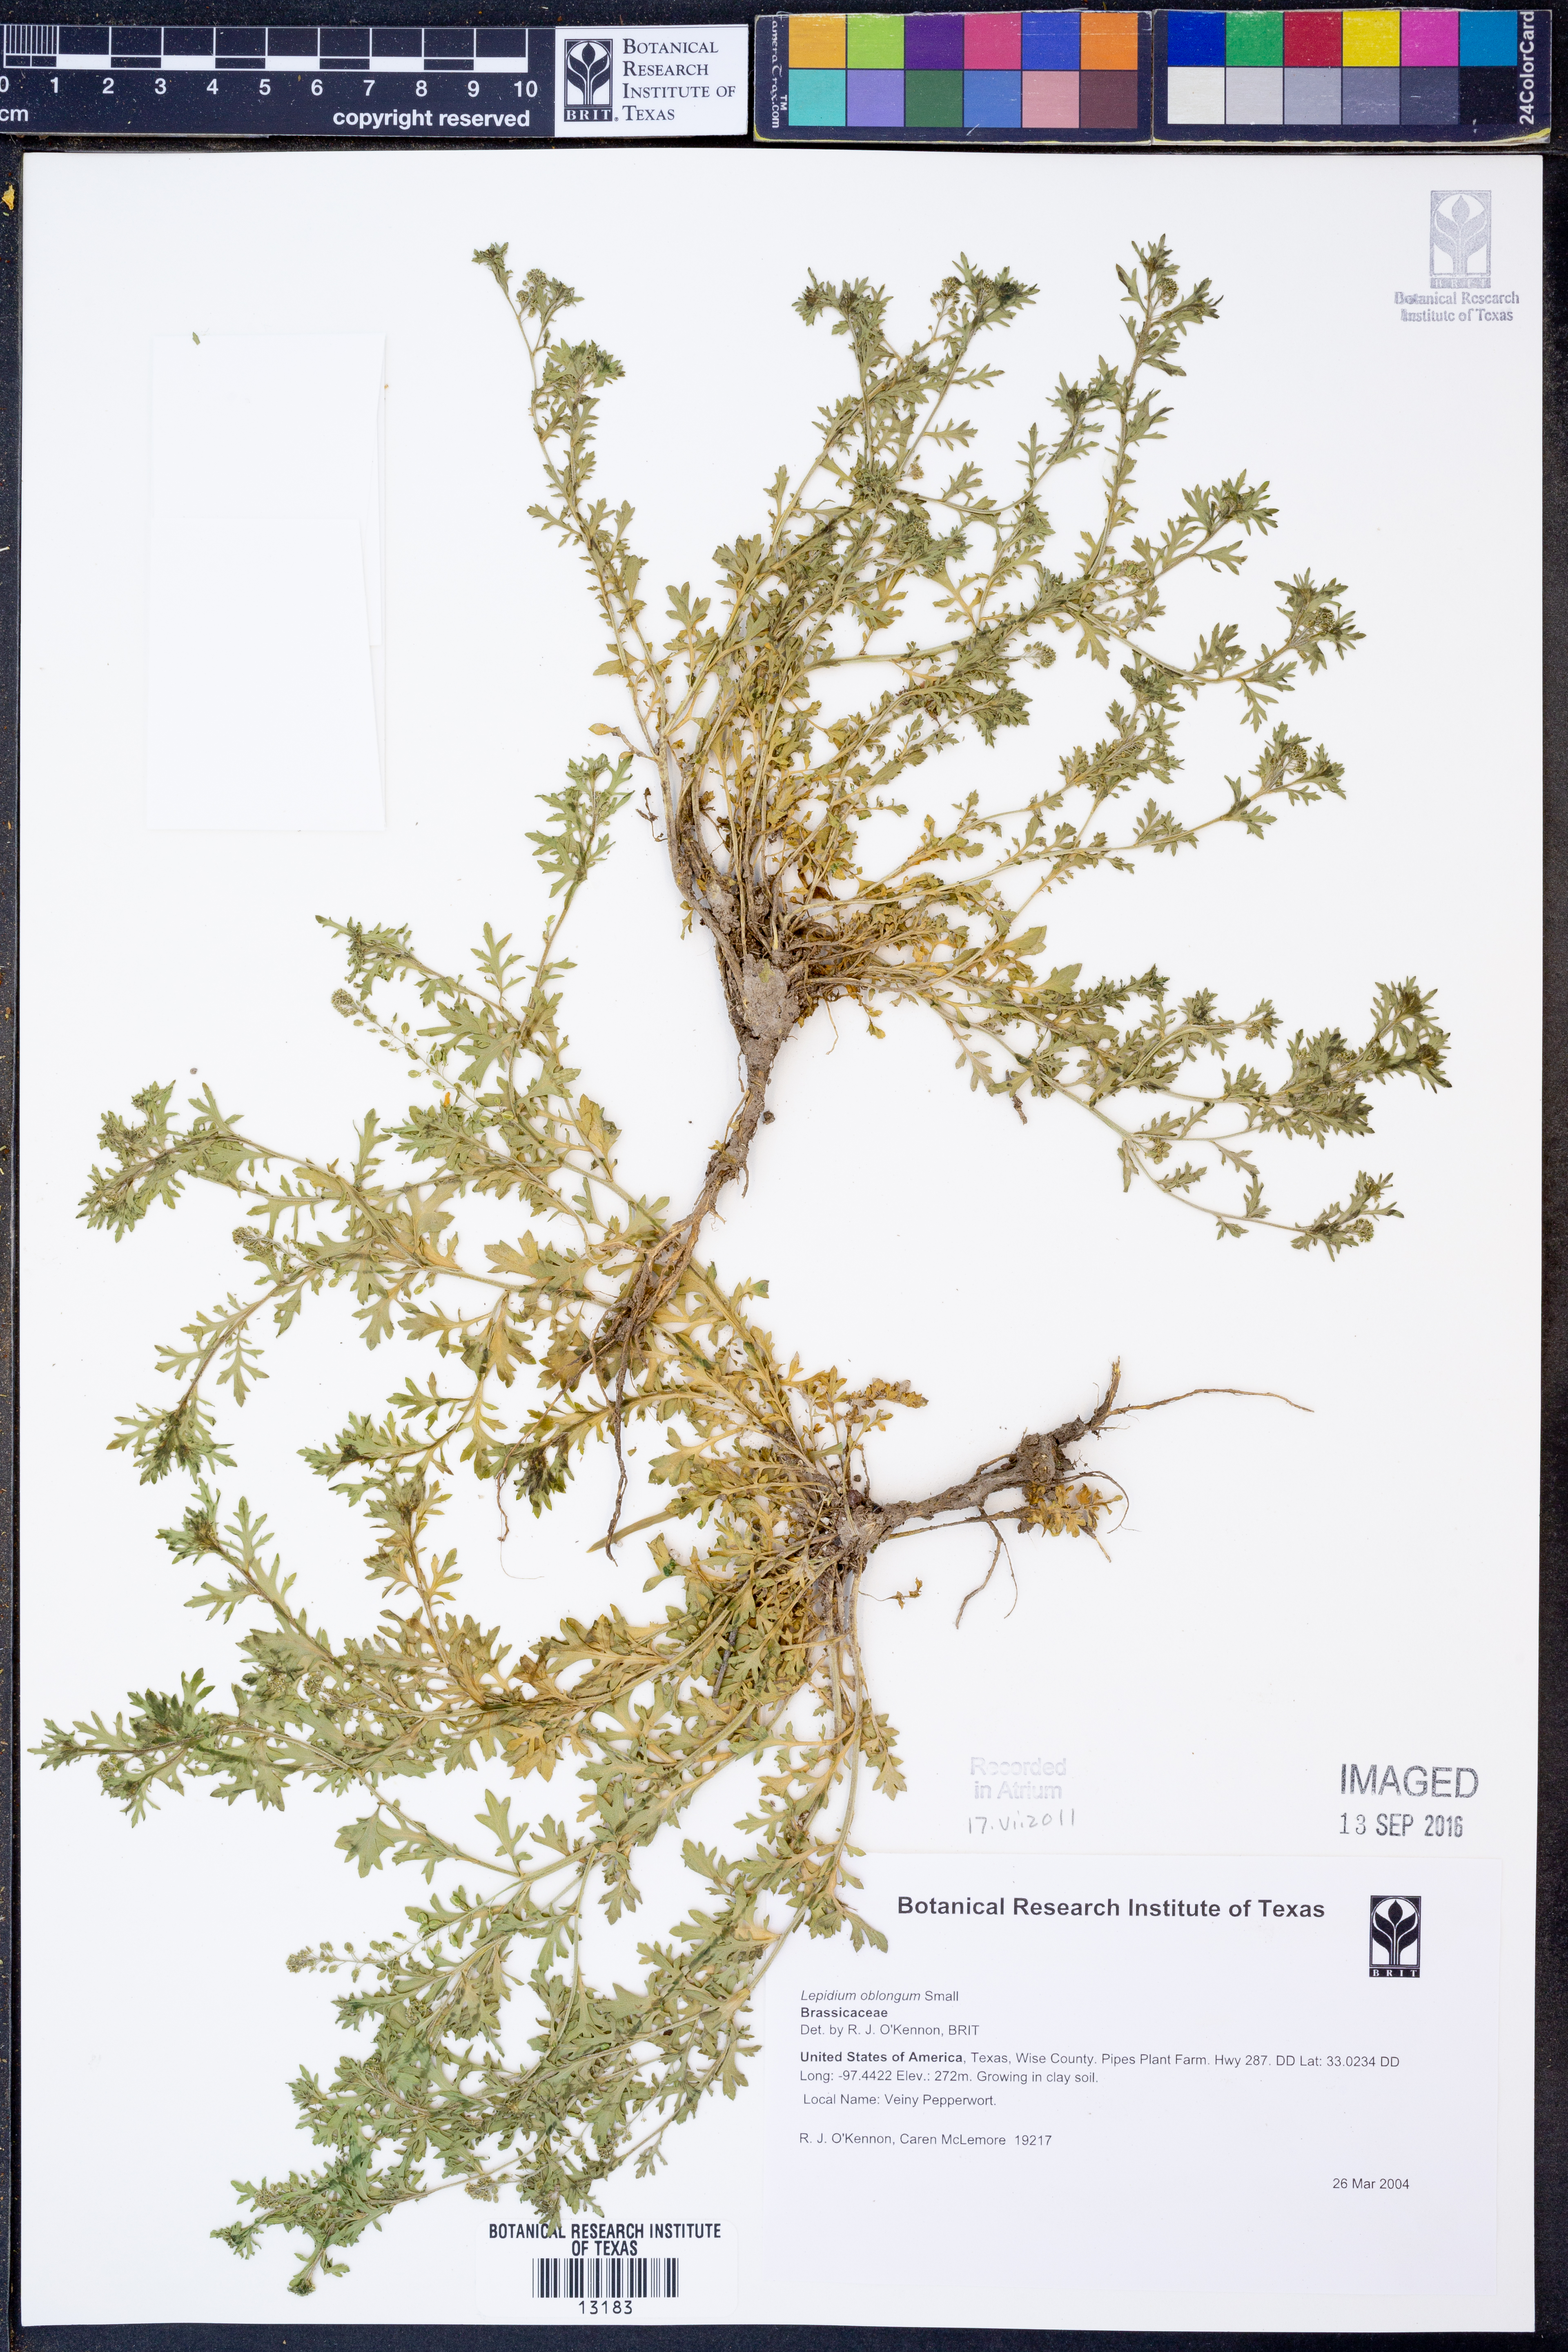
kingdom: Plantae
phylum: Tracheophyta
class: Magnoliopsida
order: Brassicales
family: Brassicaceae
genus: Lepidium
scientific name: Lepidium oblongum
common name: Veiny pepperweed
